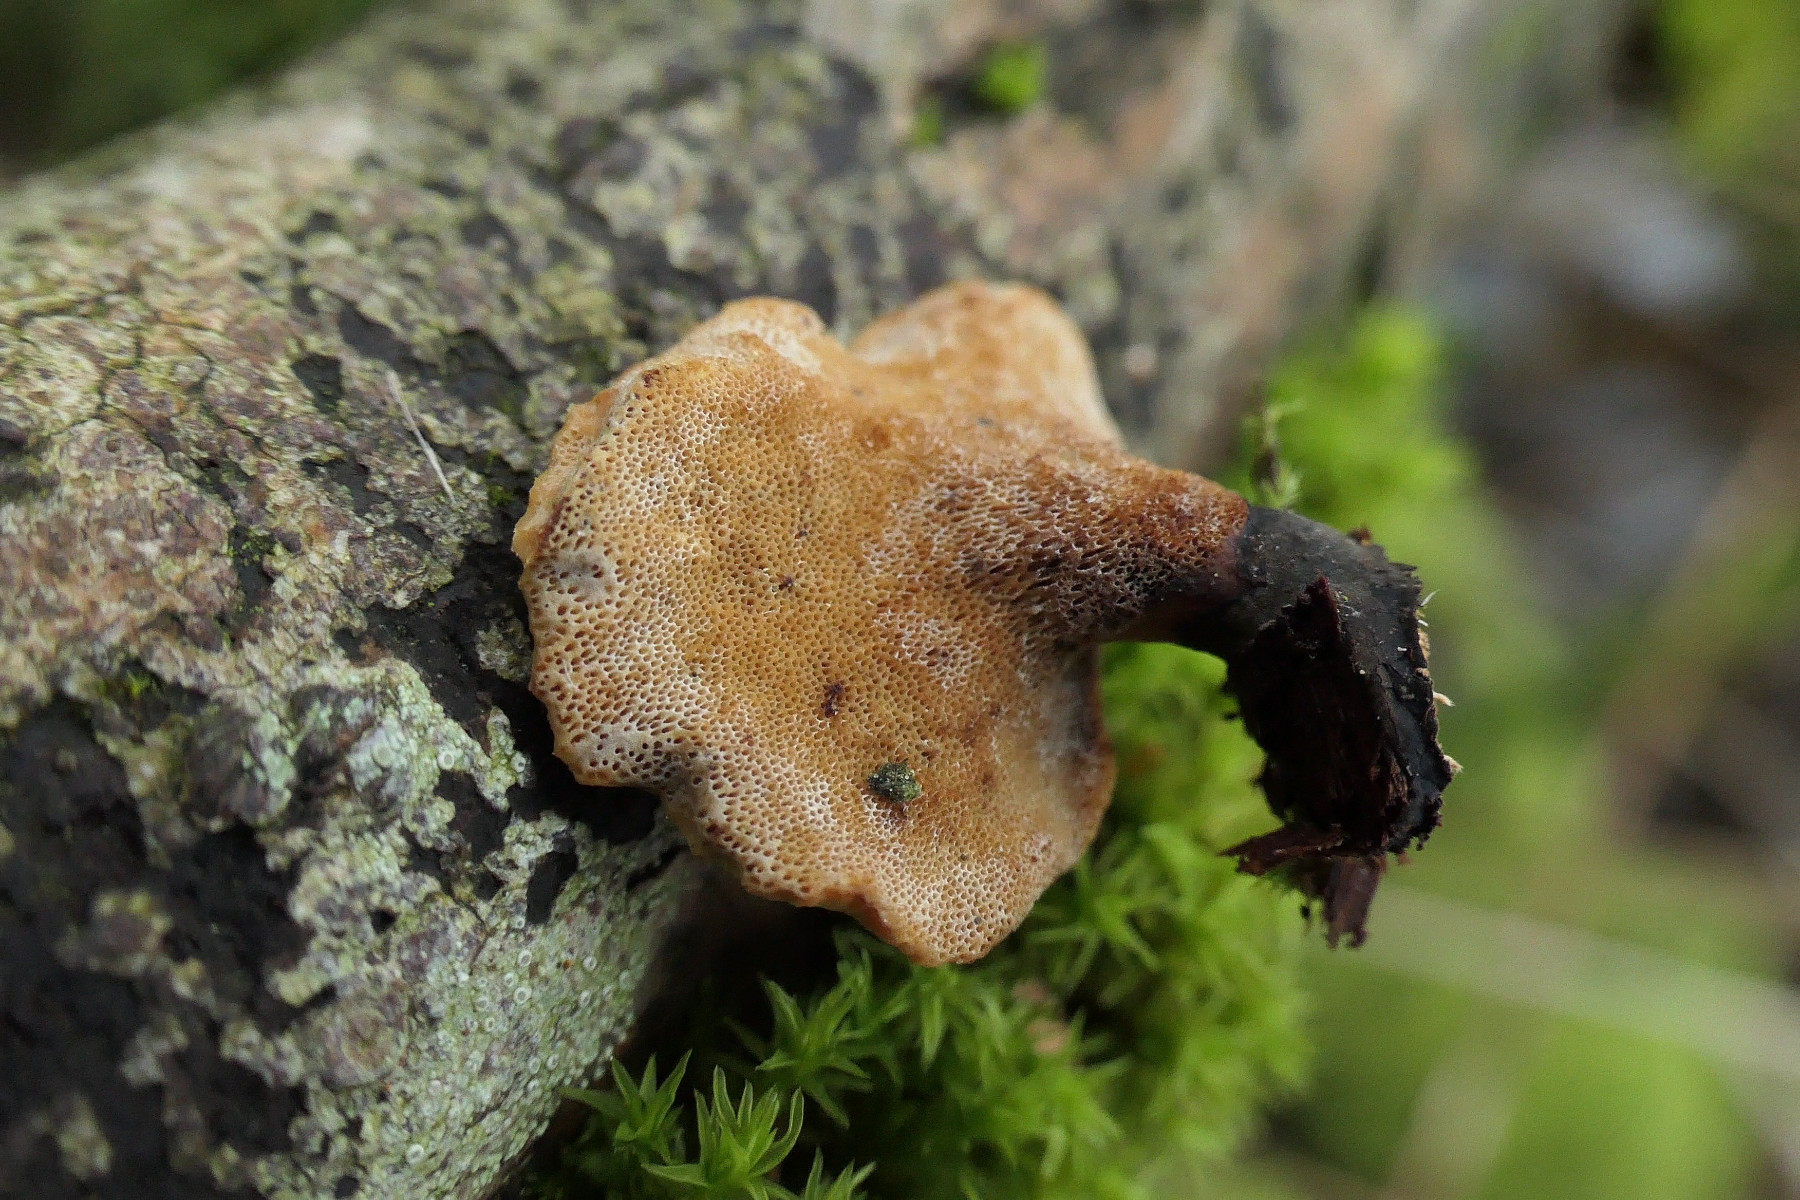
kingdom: Fungi
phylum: Basidiomycota
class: Agaricomycetes
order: Polyporales
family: Polyporaceae
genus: Cerioporus
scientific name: Cerioporus varius
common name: foranderlig stilkporesvamp
